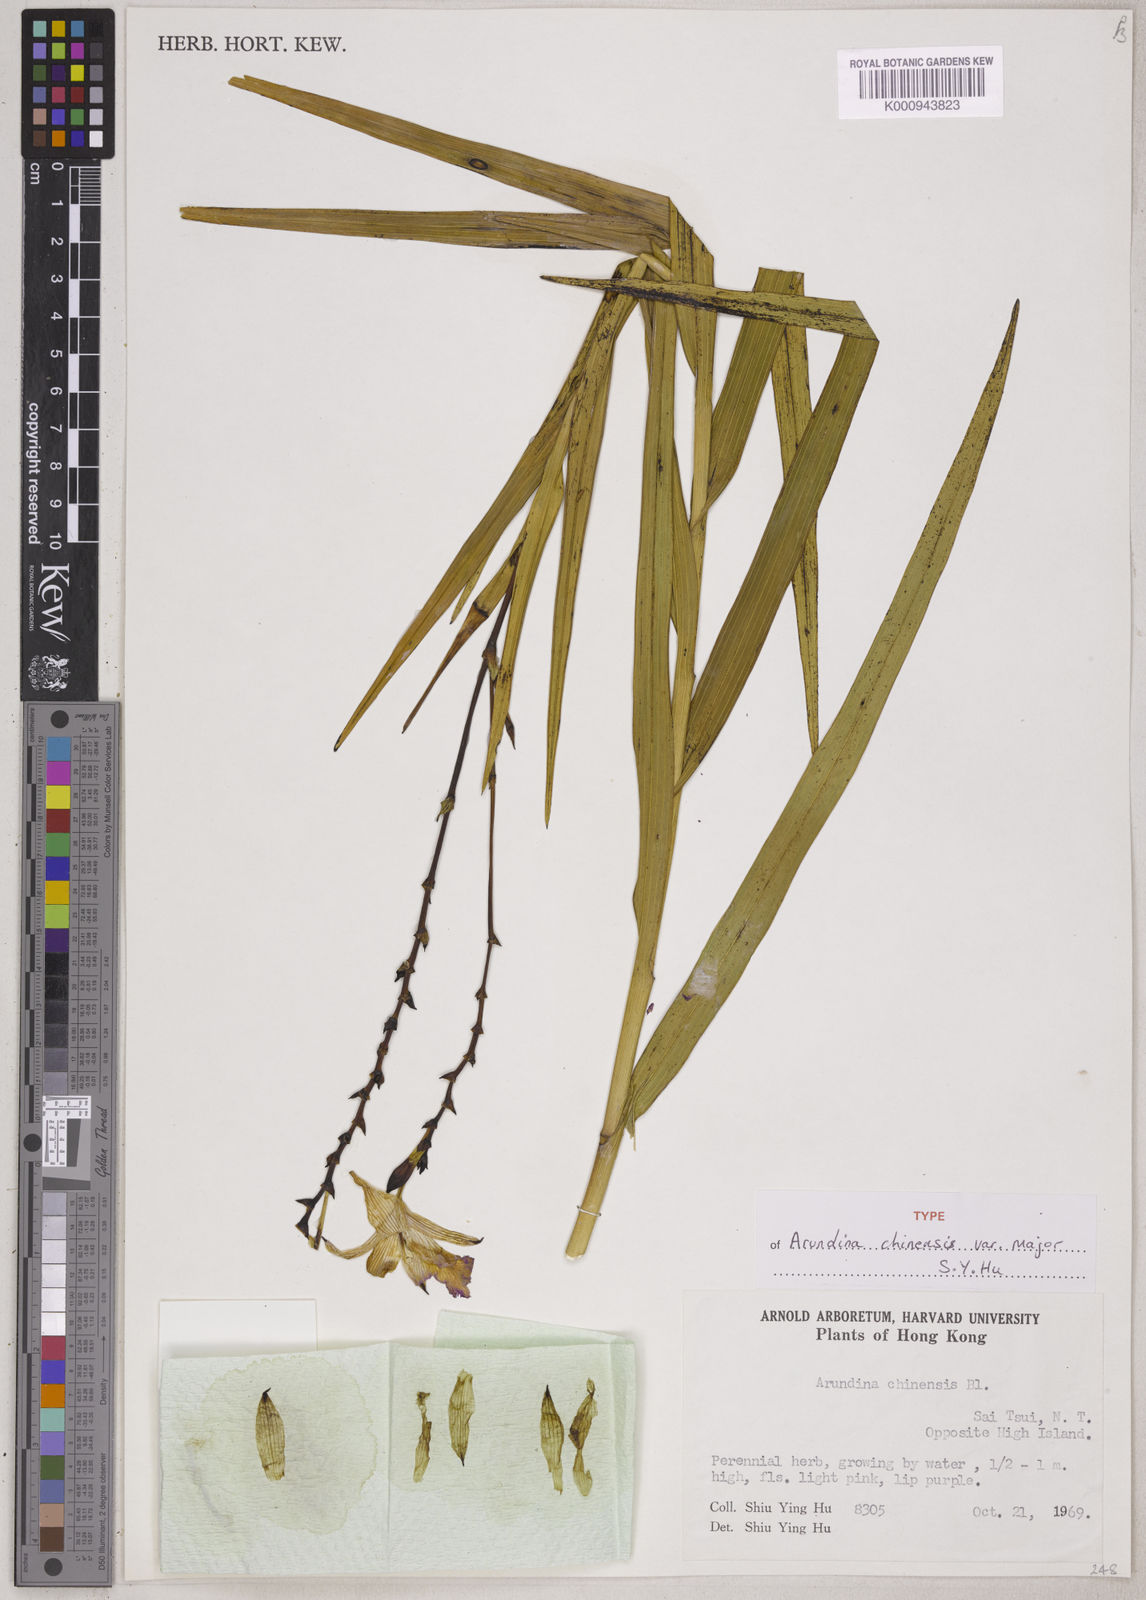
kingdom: Plantae
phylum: Tracheophyta
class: Liliopsida
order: Asparagales
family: Orchidaceae
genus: Arundina
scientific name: Arundina graminifolia
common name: Bamboo orchid
